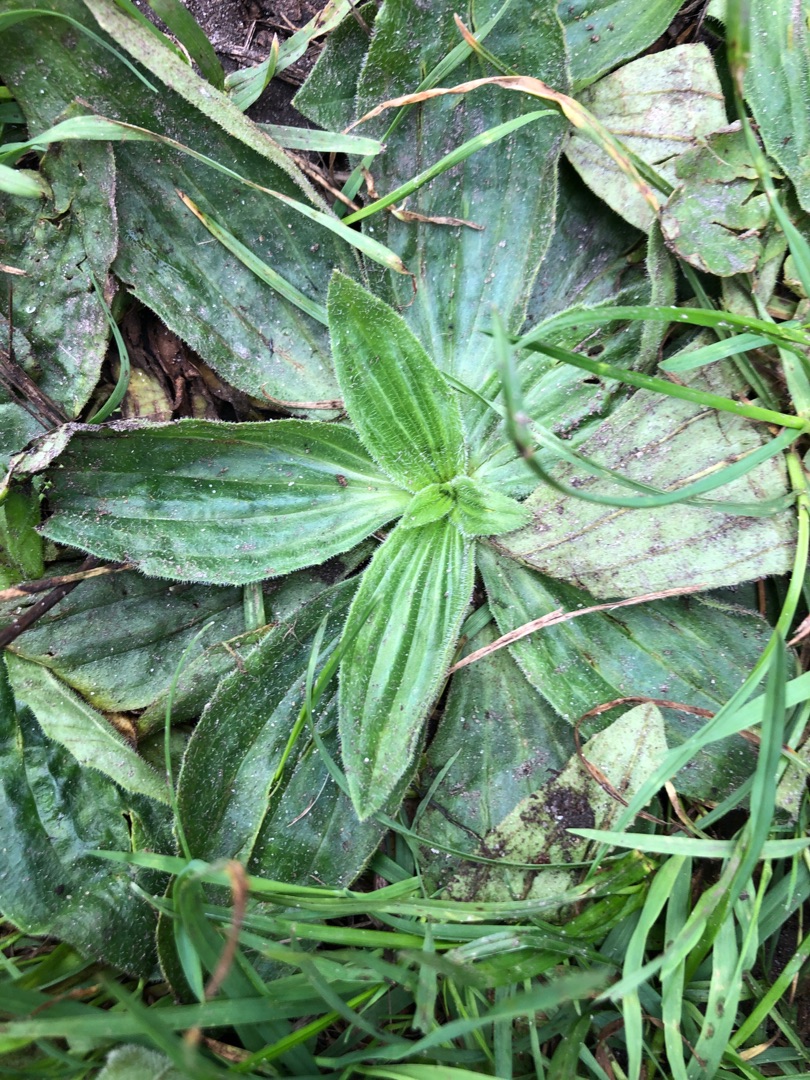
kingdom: Plantae
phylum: Tracheophyta
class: Magnoliopsida
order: Lamiales
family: Plantaginaceae
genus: Plantago
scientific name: Plantago lanceolata
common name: Lancet-vejbred
